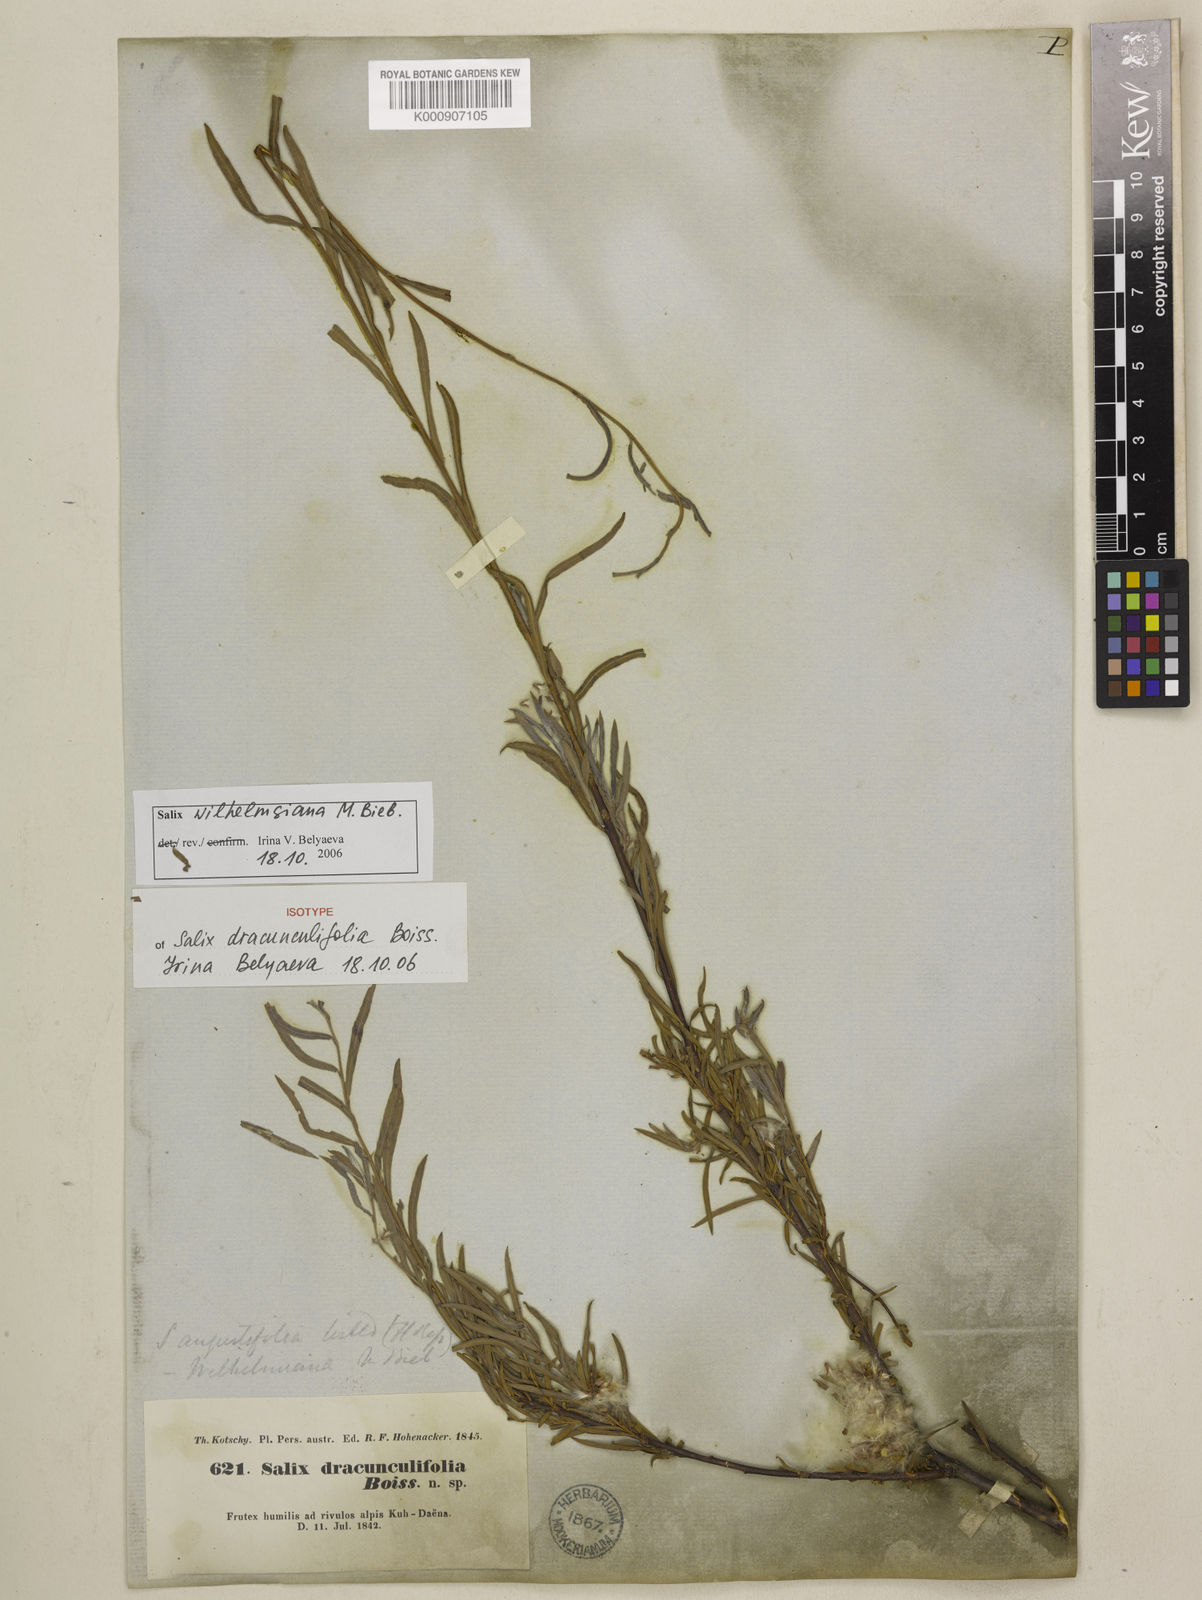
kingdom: Plantae
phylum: Tracheophyta
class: Magnoliopsida
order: Malpighiales
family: Salicaceae
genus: Salix
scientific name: Salix
